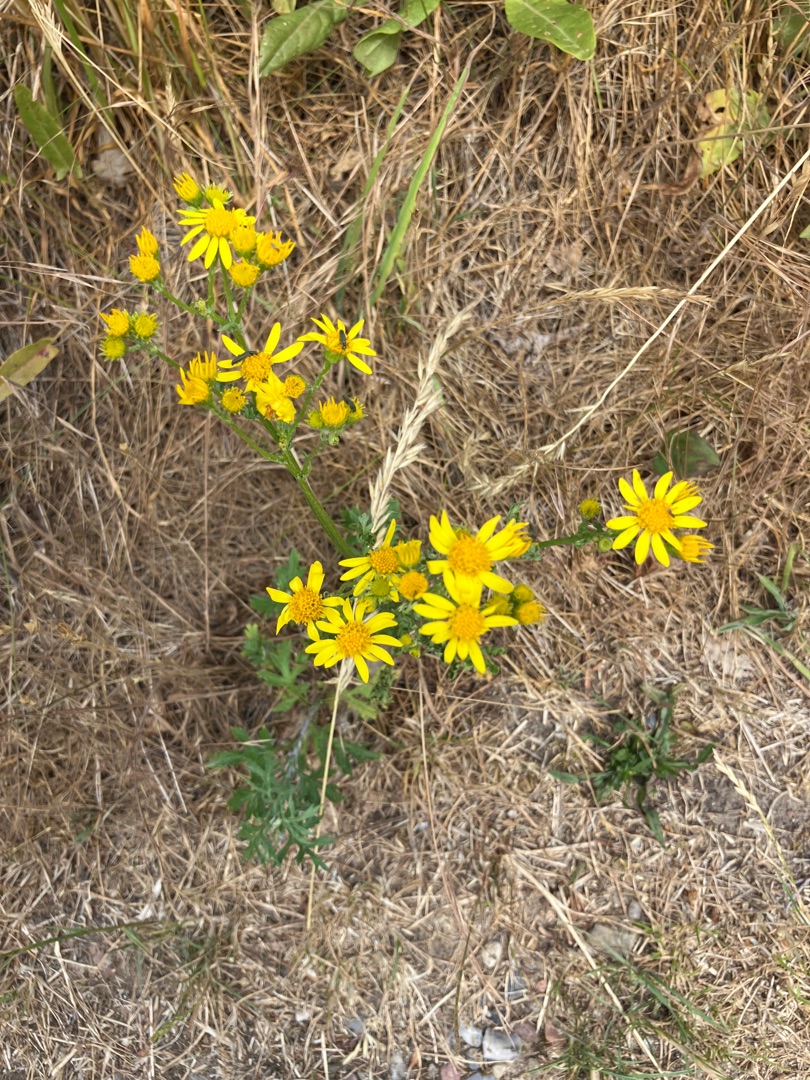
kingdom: Plantae
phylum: Tracheophyta
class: Magnoliopsida
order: Asterales
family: Asteraceae
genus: Jacobaea
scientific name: Jacobaea vulgaris
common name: Eng-brandbæger
